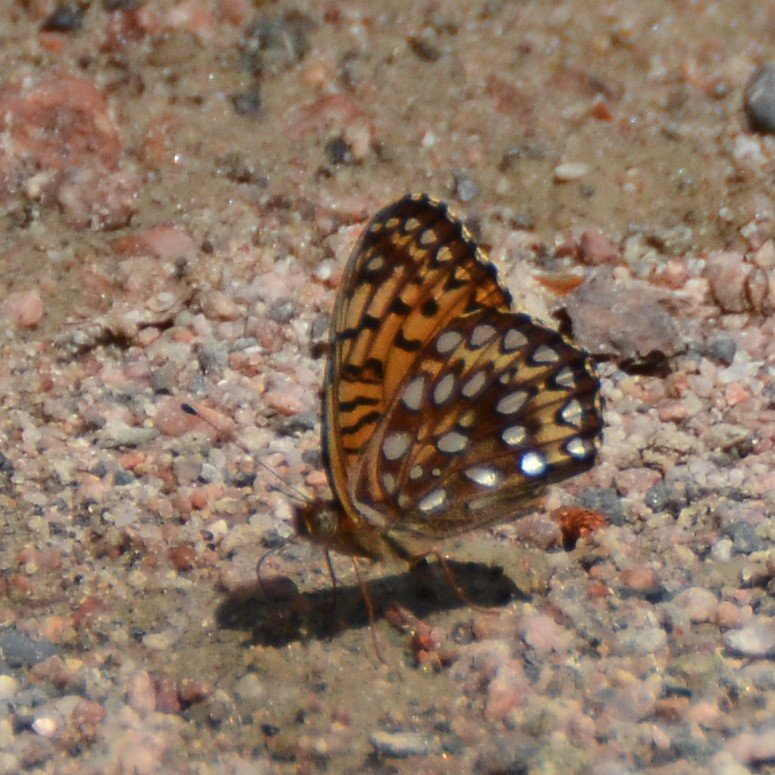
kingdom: Animalia
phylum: Arthropoda
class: Insecta
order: Lepidoptera
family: Nymphalidae
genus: Speyeria
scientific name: Speyeria atlantis
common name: Atlantis Fritillary
